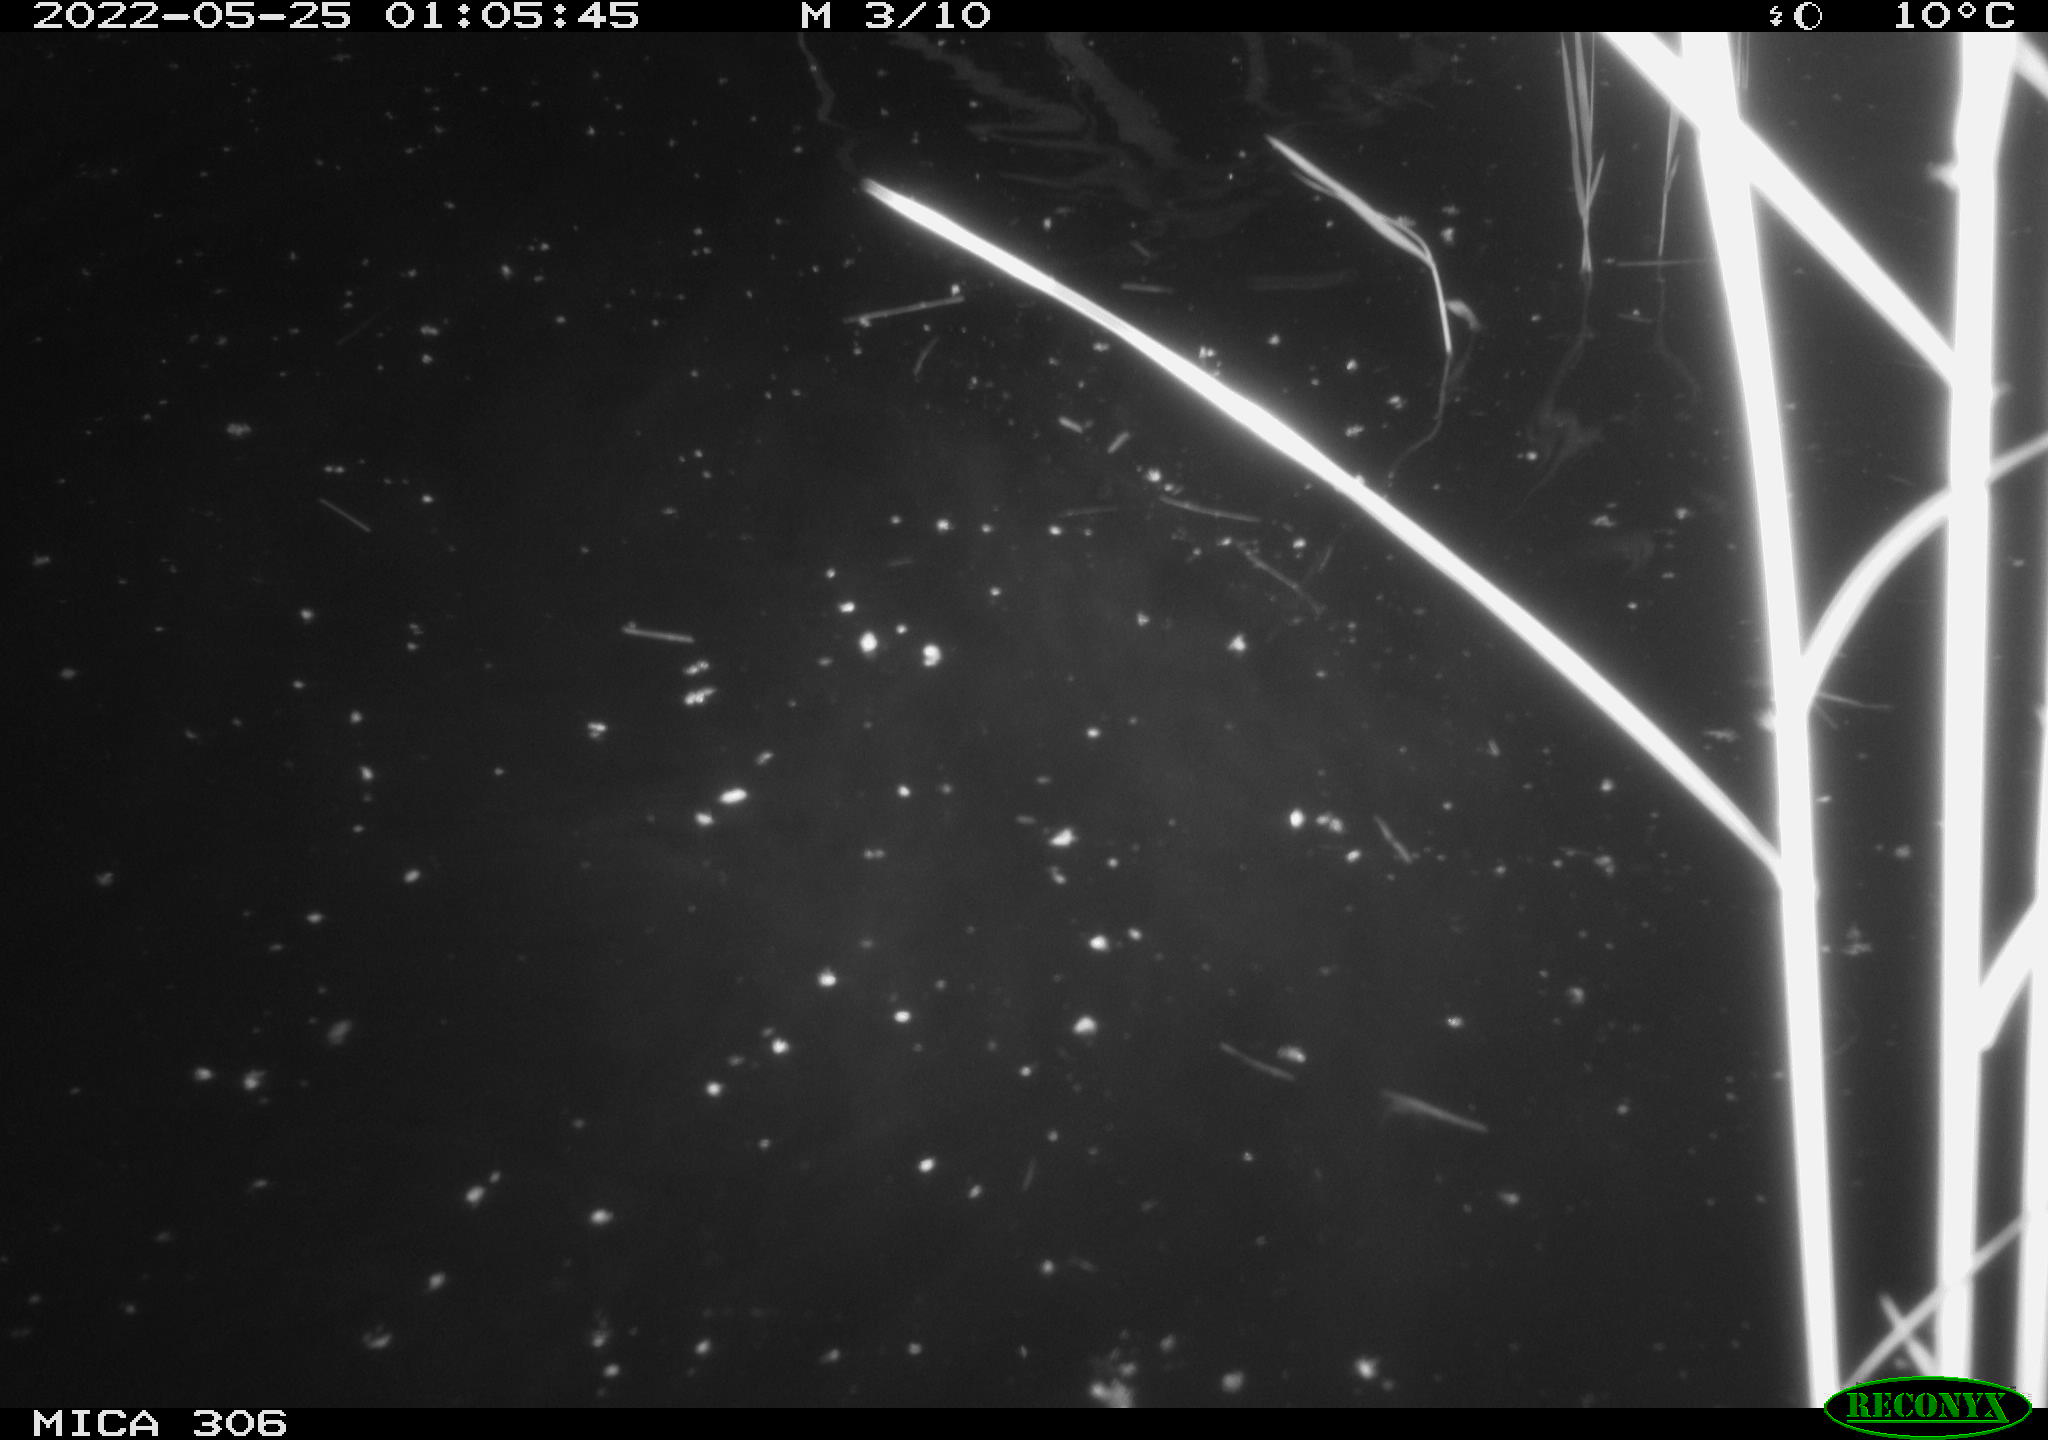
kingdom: Animalia
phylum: Chordata
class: Mammalia
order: Rodentia
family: Cricetidae
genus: Ondatra
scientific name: Ondatra zibethicus
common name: Muskrat
